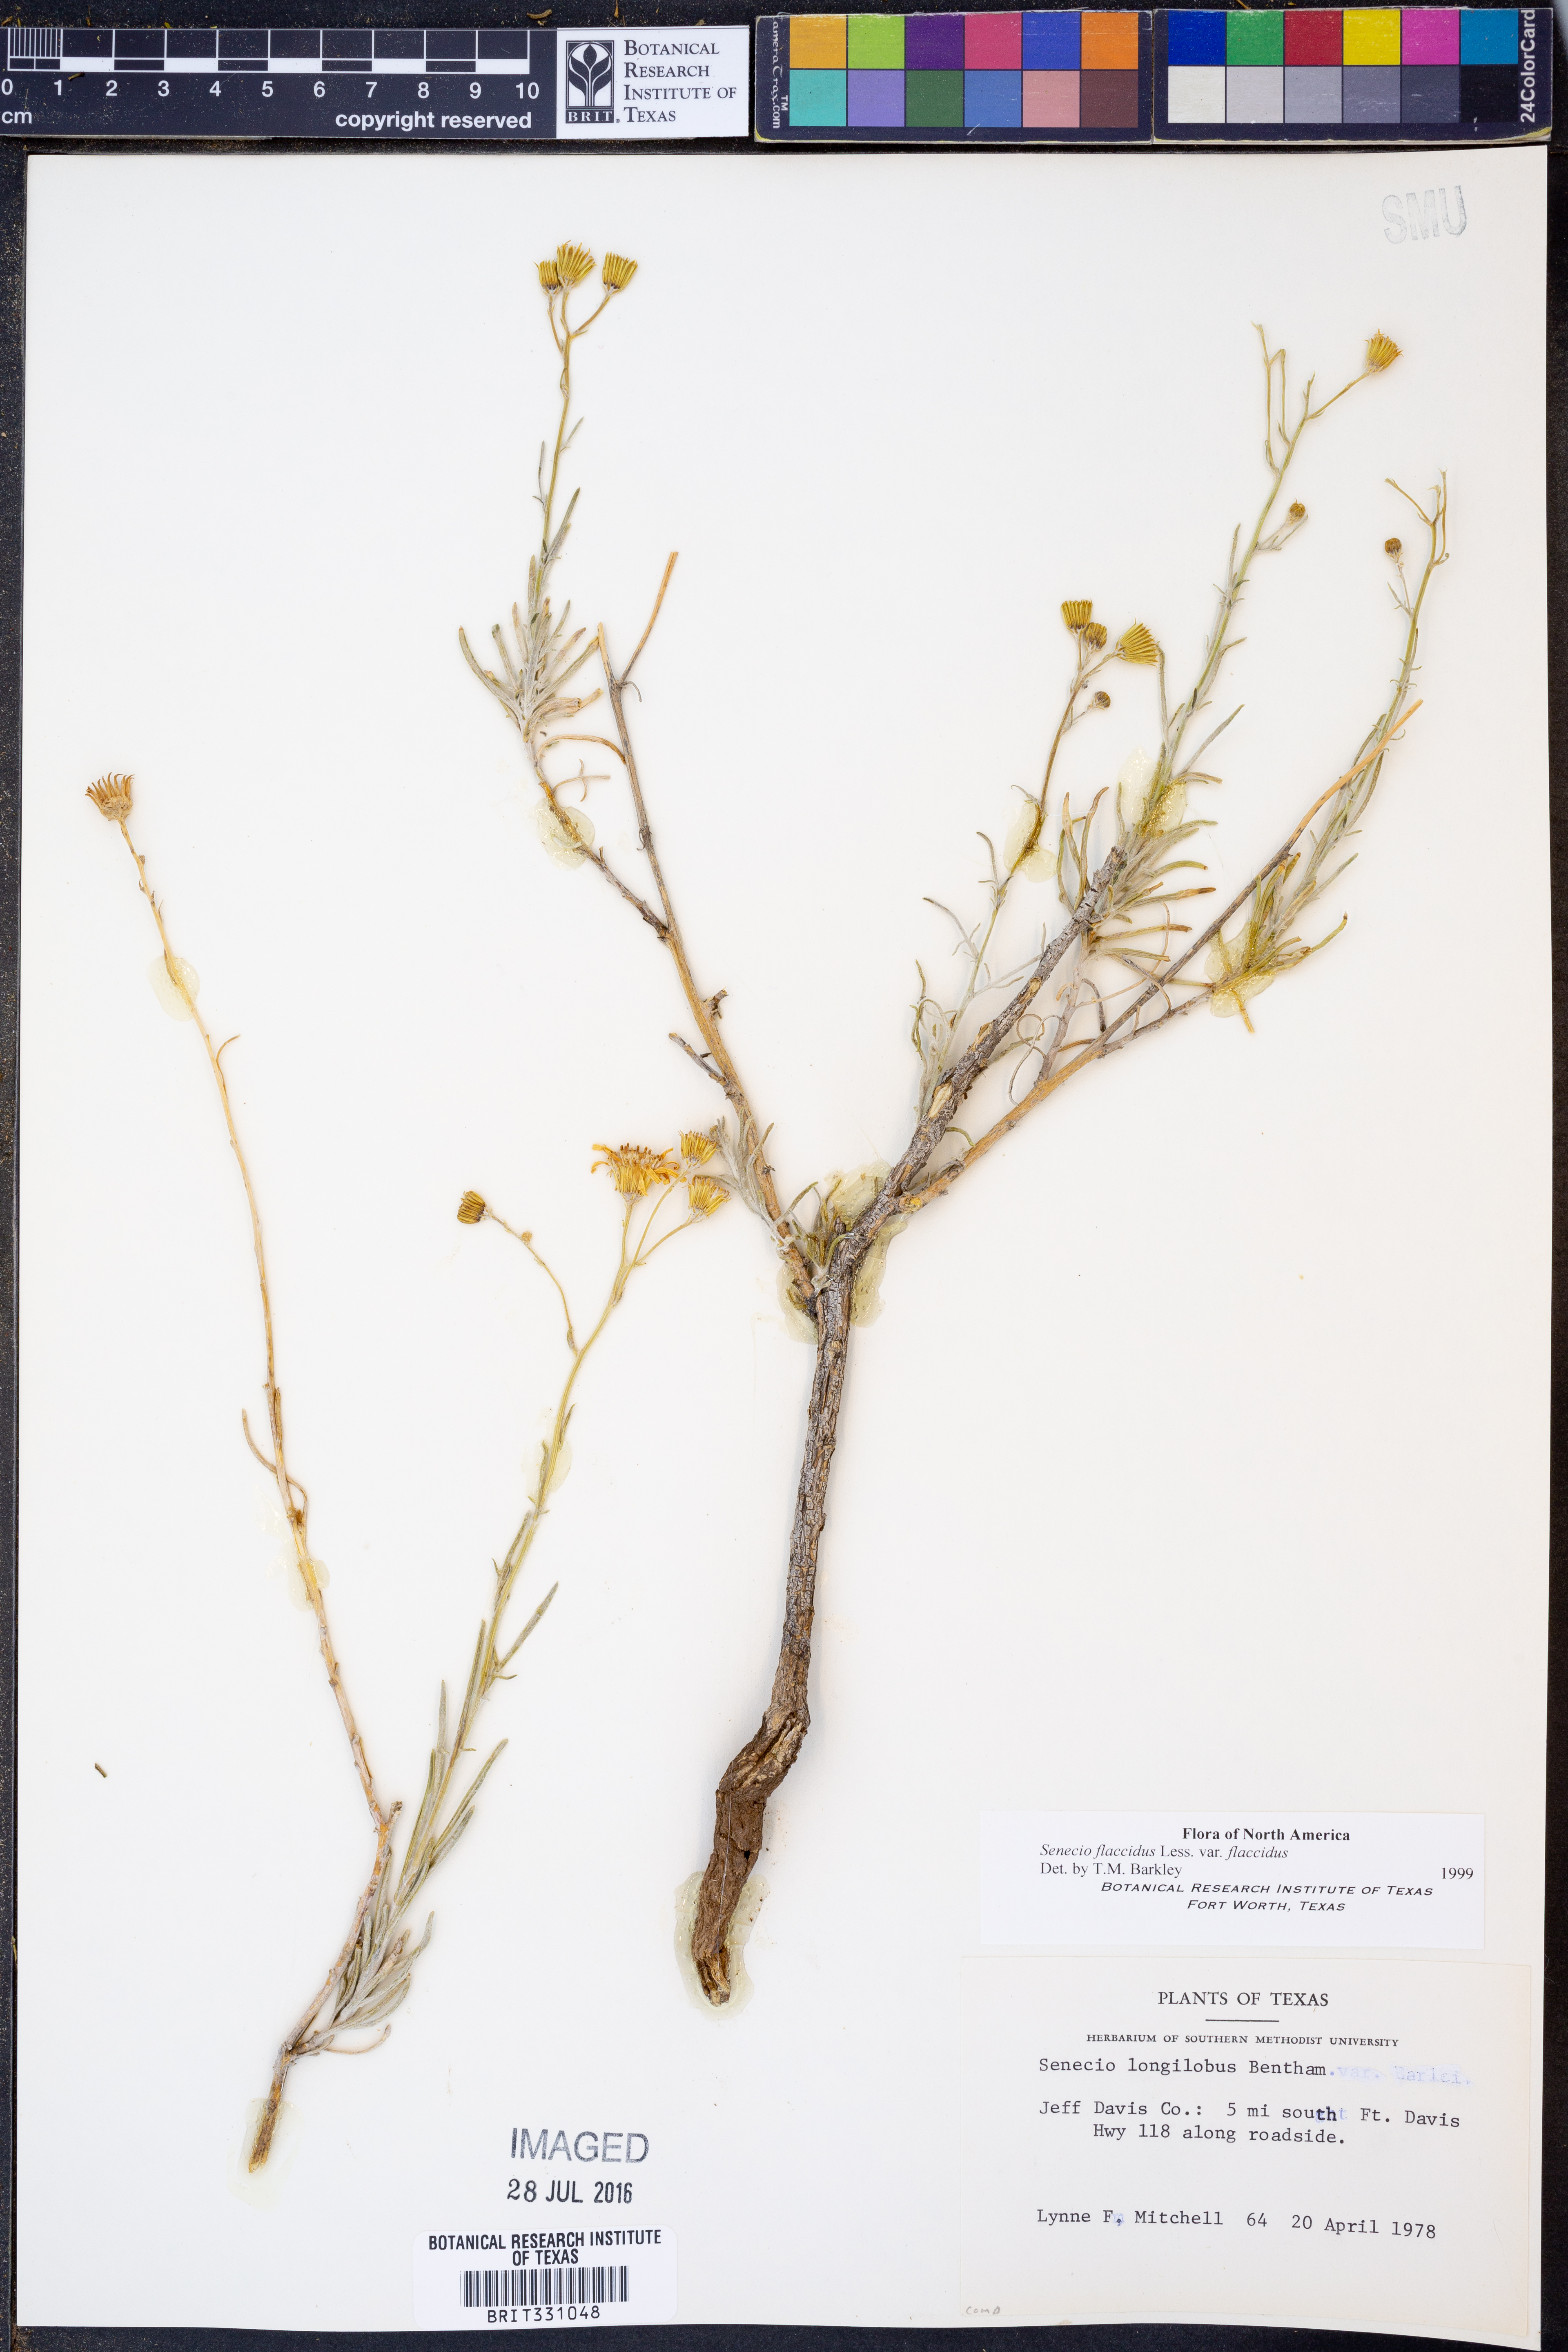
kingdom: Plantae
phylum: Tracheophyta
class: Magnoliopsida
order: Asterales
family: Asteraceae
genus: Senecio
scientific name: Senecio flaccidus
